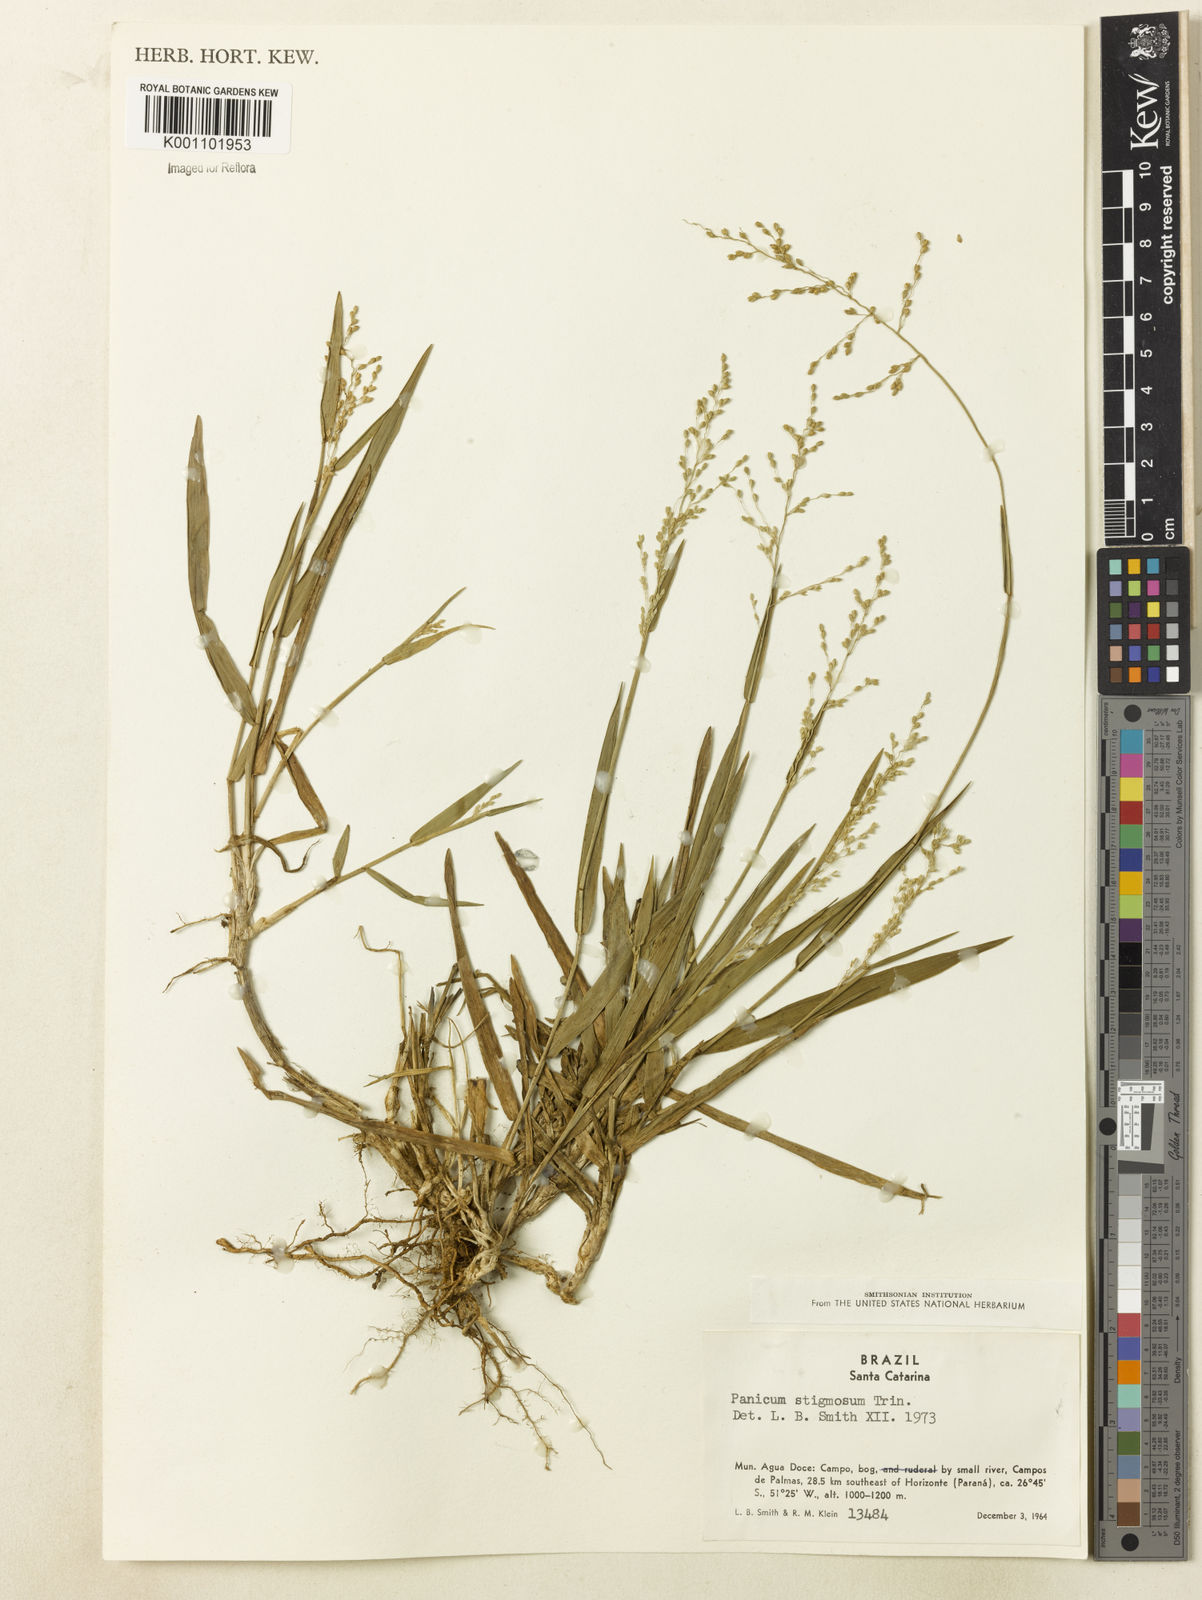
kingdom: Plantae
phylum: Tracheophyta
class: Liliopsida
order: Poales
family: Poaceae
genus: Dichanthelium
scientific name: Dichanthelium sabulorum
